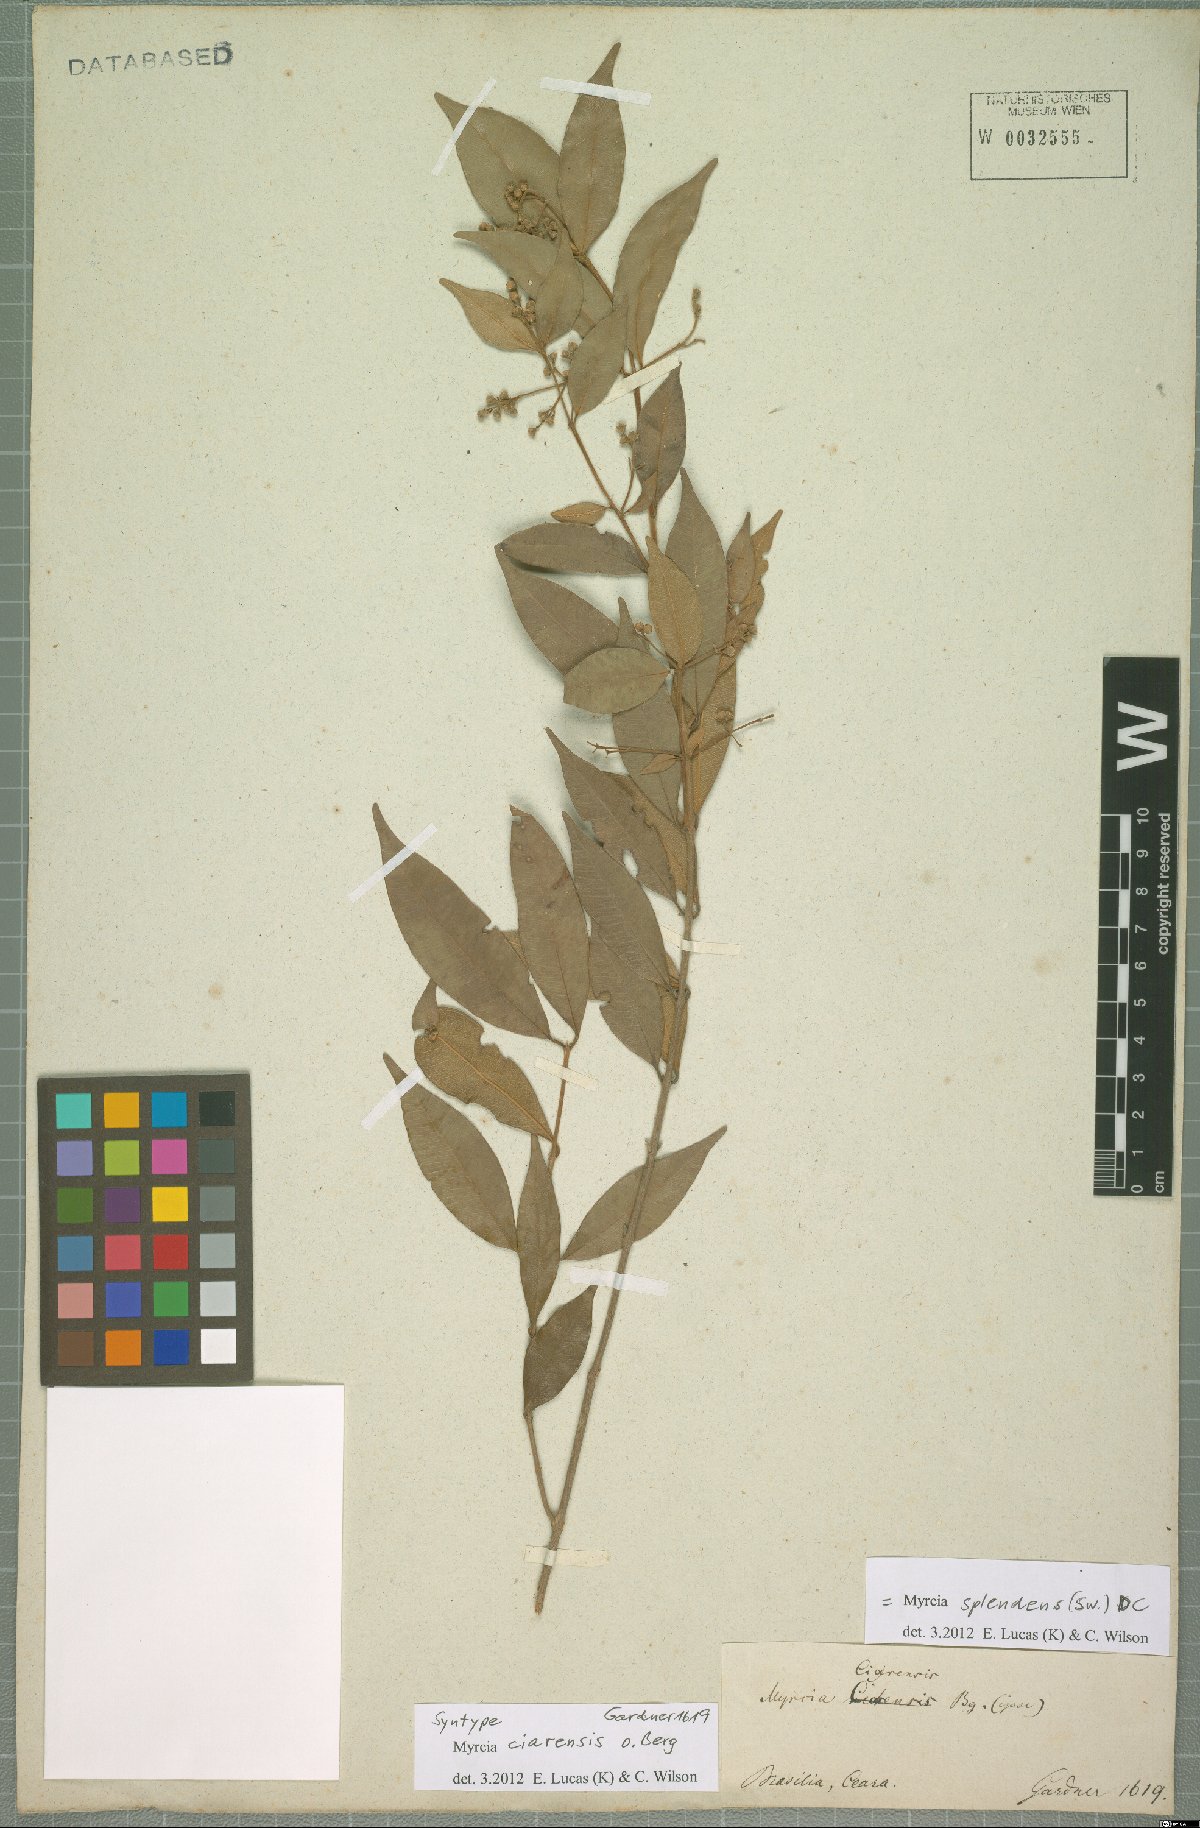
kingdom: Plantae
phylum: Tracheophyta
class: Magnoliopsida
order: Myrtales
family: Myrtaceae
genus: Myrcia
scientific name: Myrcia splendens
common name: Surinam cherry
